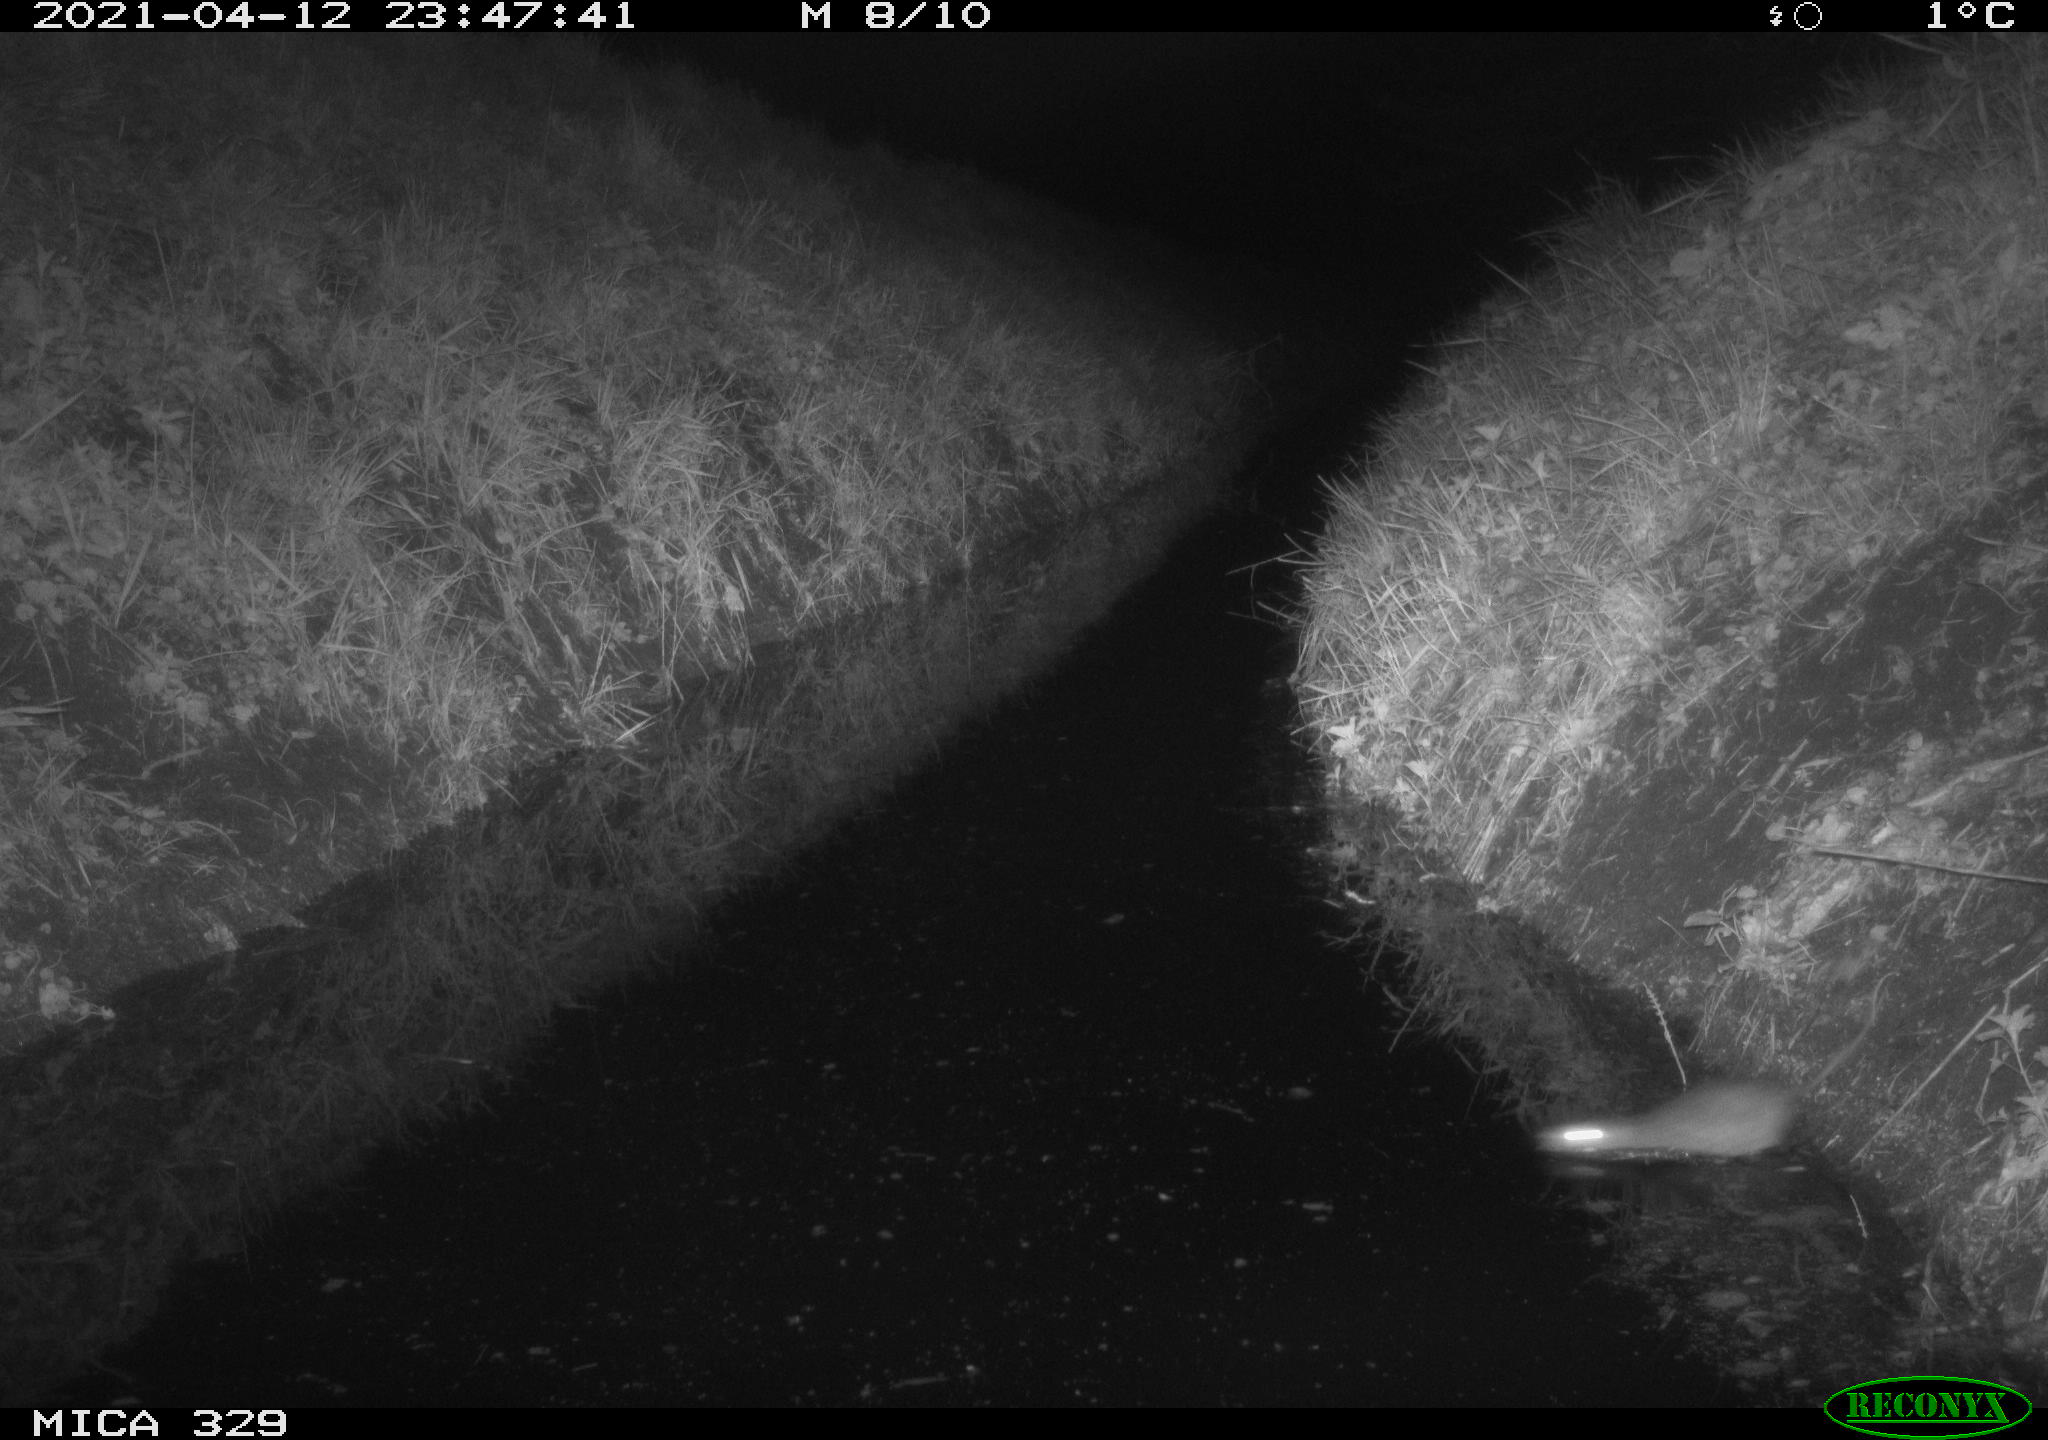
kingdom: Animalia
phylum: Chordata
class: Mammalia
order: Rodentia
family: Muridae
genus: Rattus
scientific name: Rattus norvegicus
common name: Brown rat
